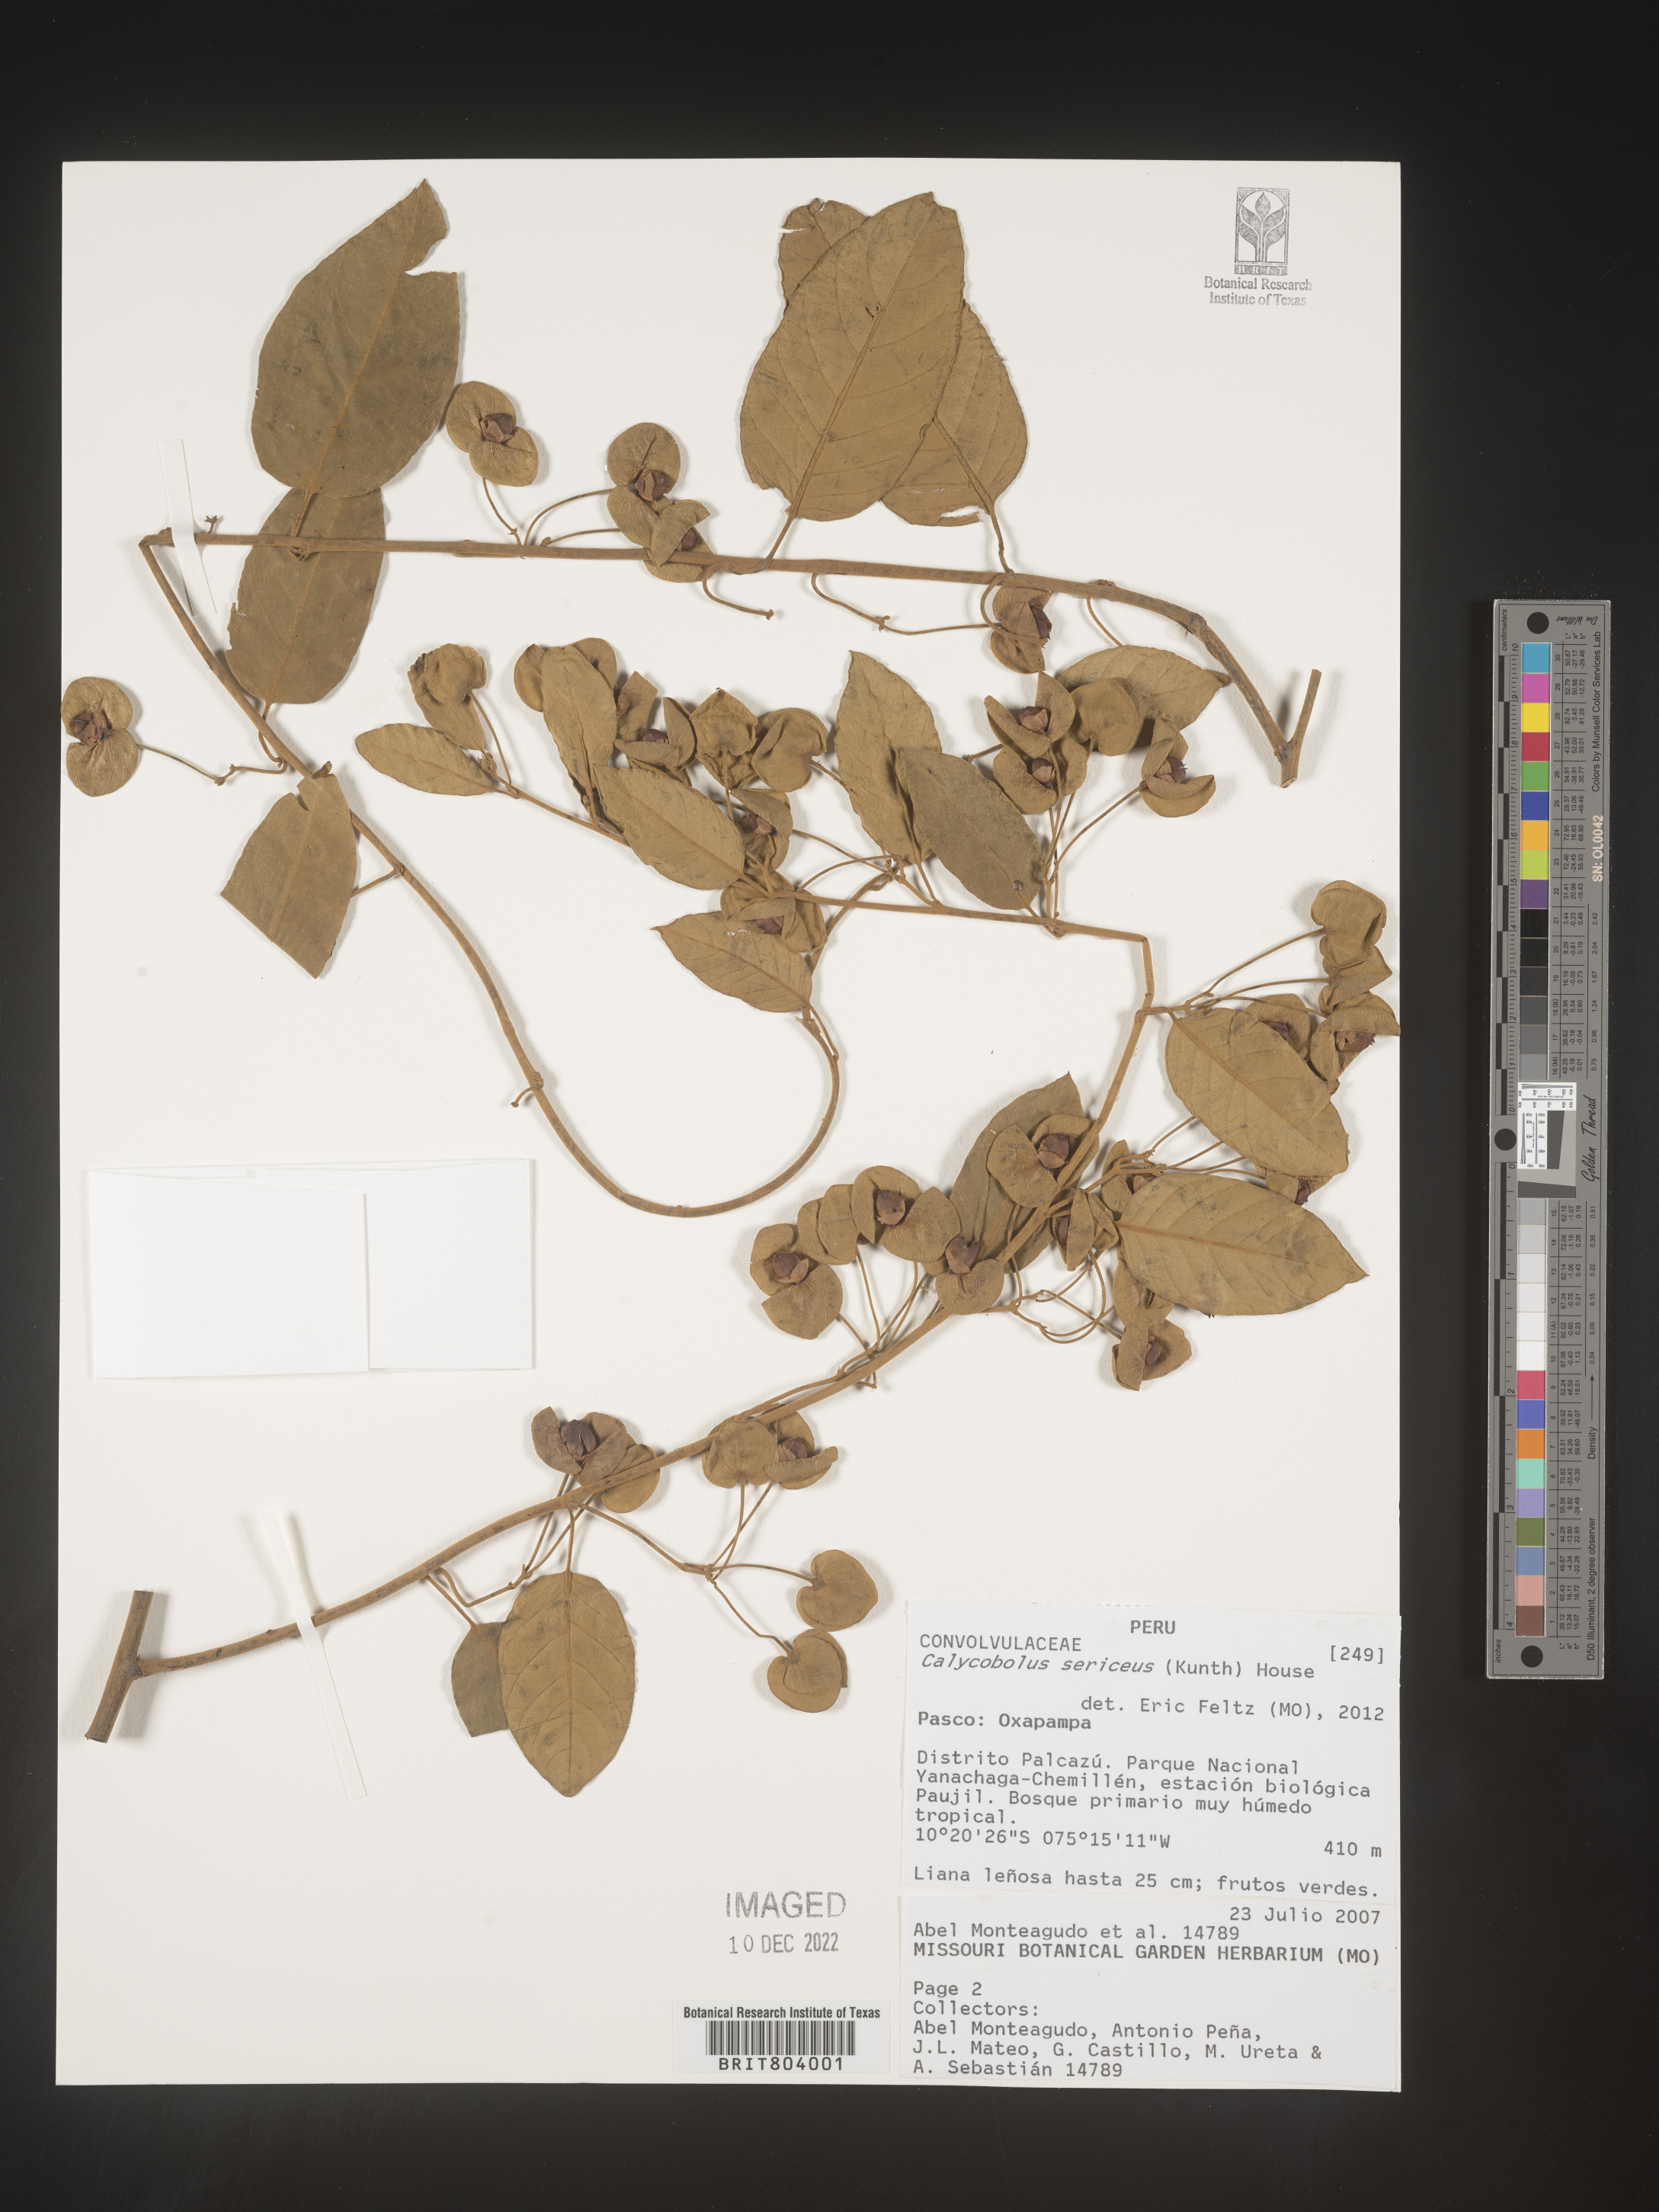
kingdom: Plantae
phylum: Tracheophyta
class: Magnoliopsida
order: Solanales
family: Convolvulaceae
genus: Calycobolus
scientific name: Calycobolus
